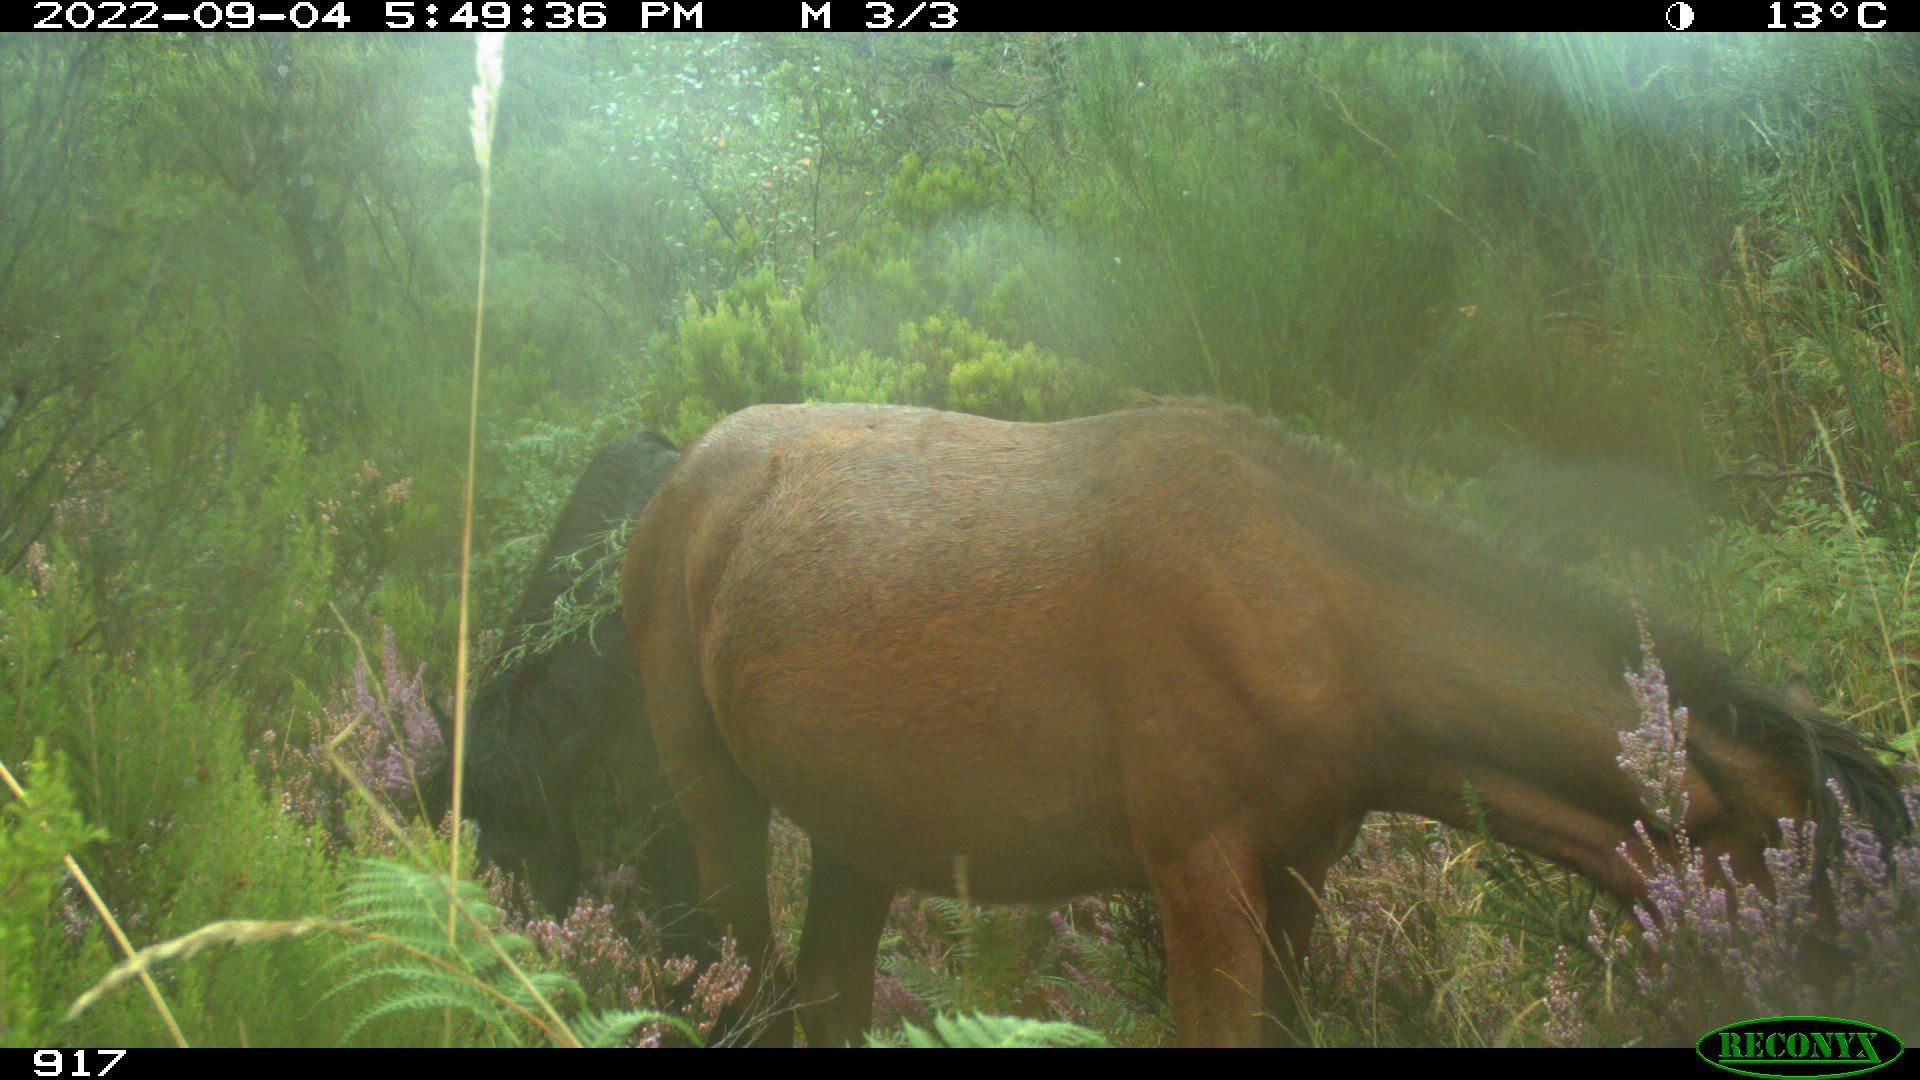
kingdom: Animalia
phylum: Chordata
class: Mammalia
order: Perissodactyla
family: Equidae
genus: Equus
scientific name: Equus caballus
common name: Horse
